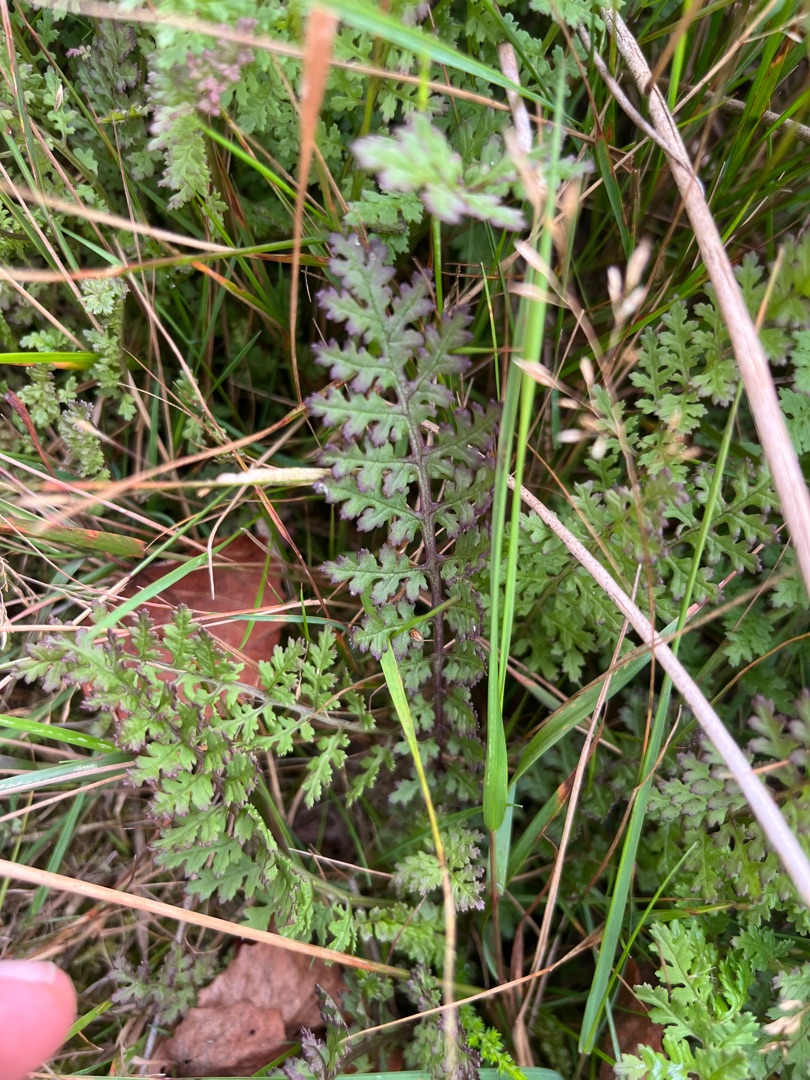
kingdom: Plantae
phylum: Tracheophyta
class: Magnoliopsida
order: Lamiales
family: Orobanchaceae
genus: Pedicularis
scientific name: Pedicularis palustris
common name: Eng-troldurt
